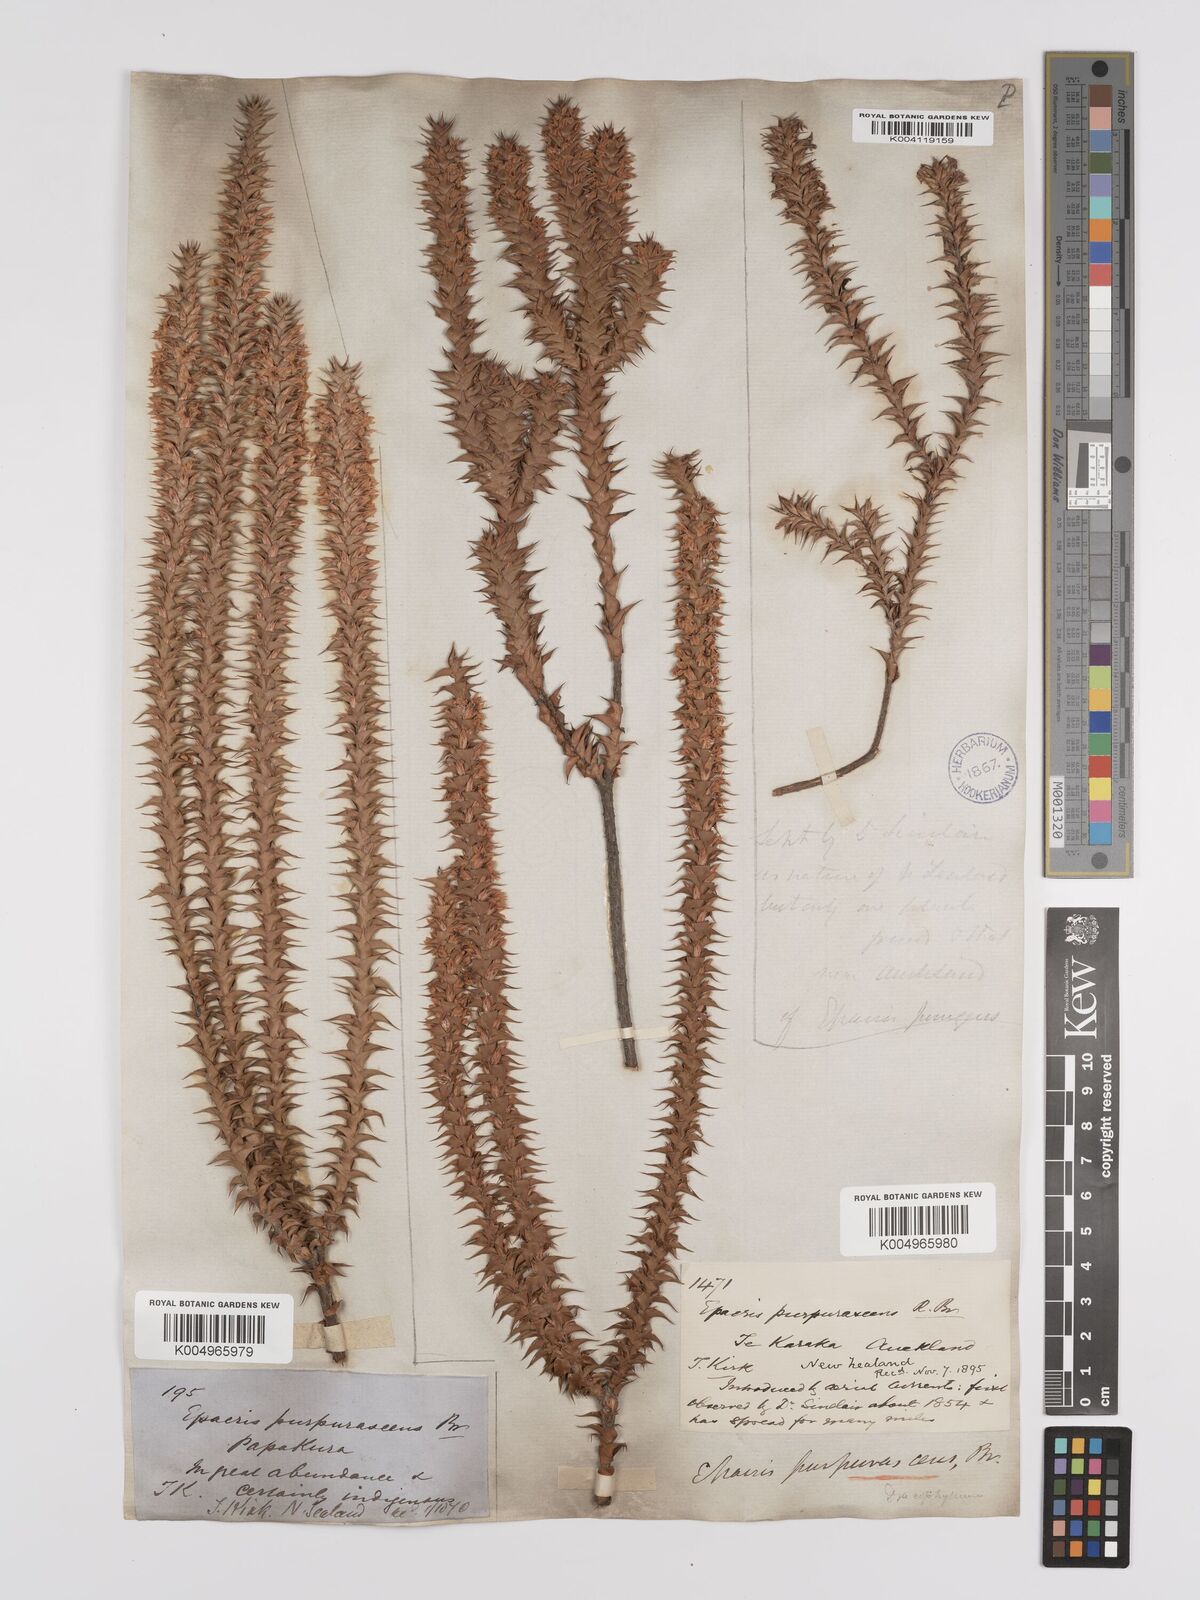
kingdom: Plantae
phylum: Tracheophyta
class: Magnoliopsida
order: Ericales
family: Ericaceae
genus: Epacris
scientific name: Epacris purpurascens
